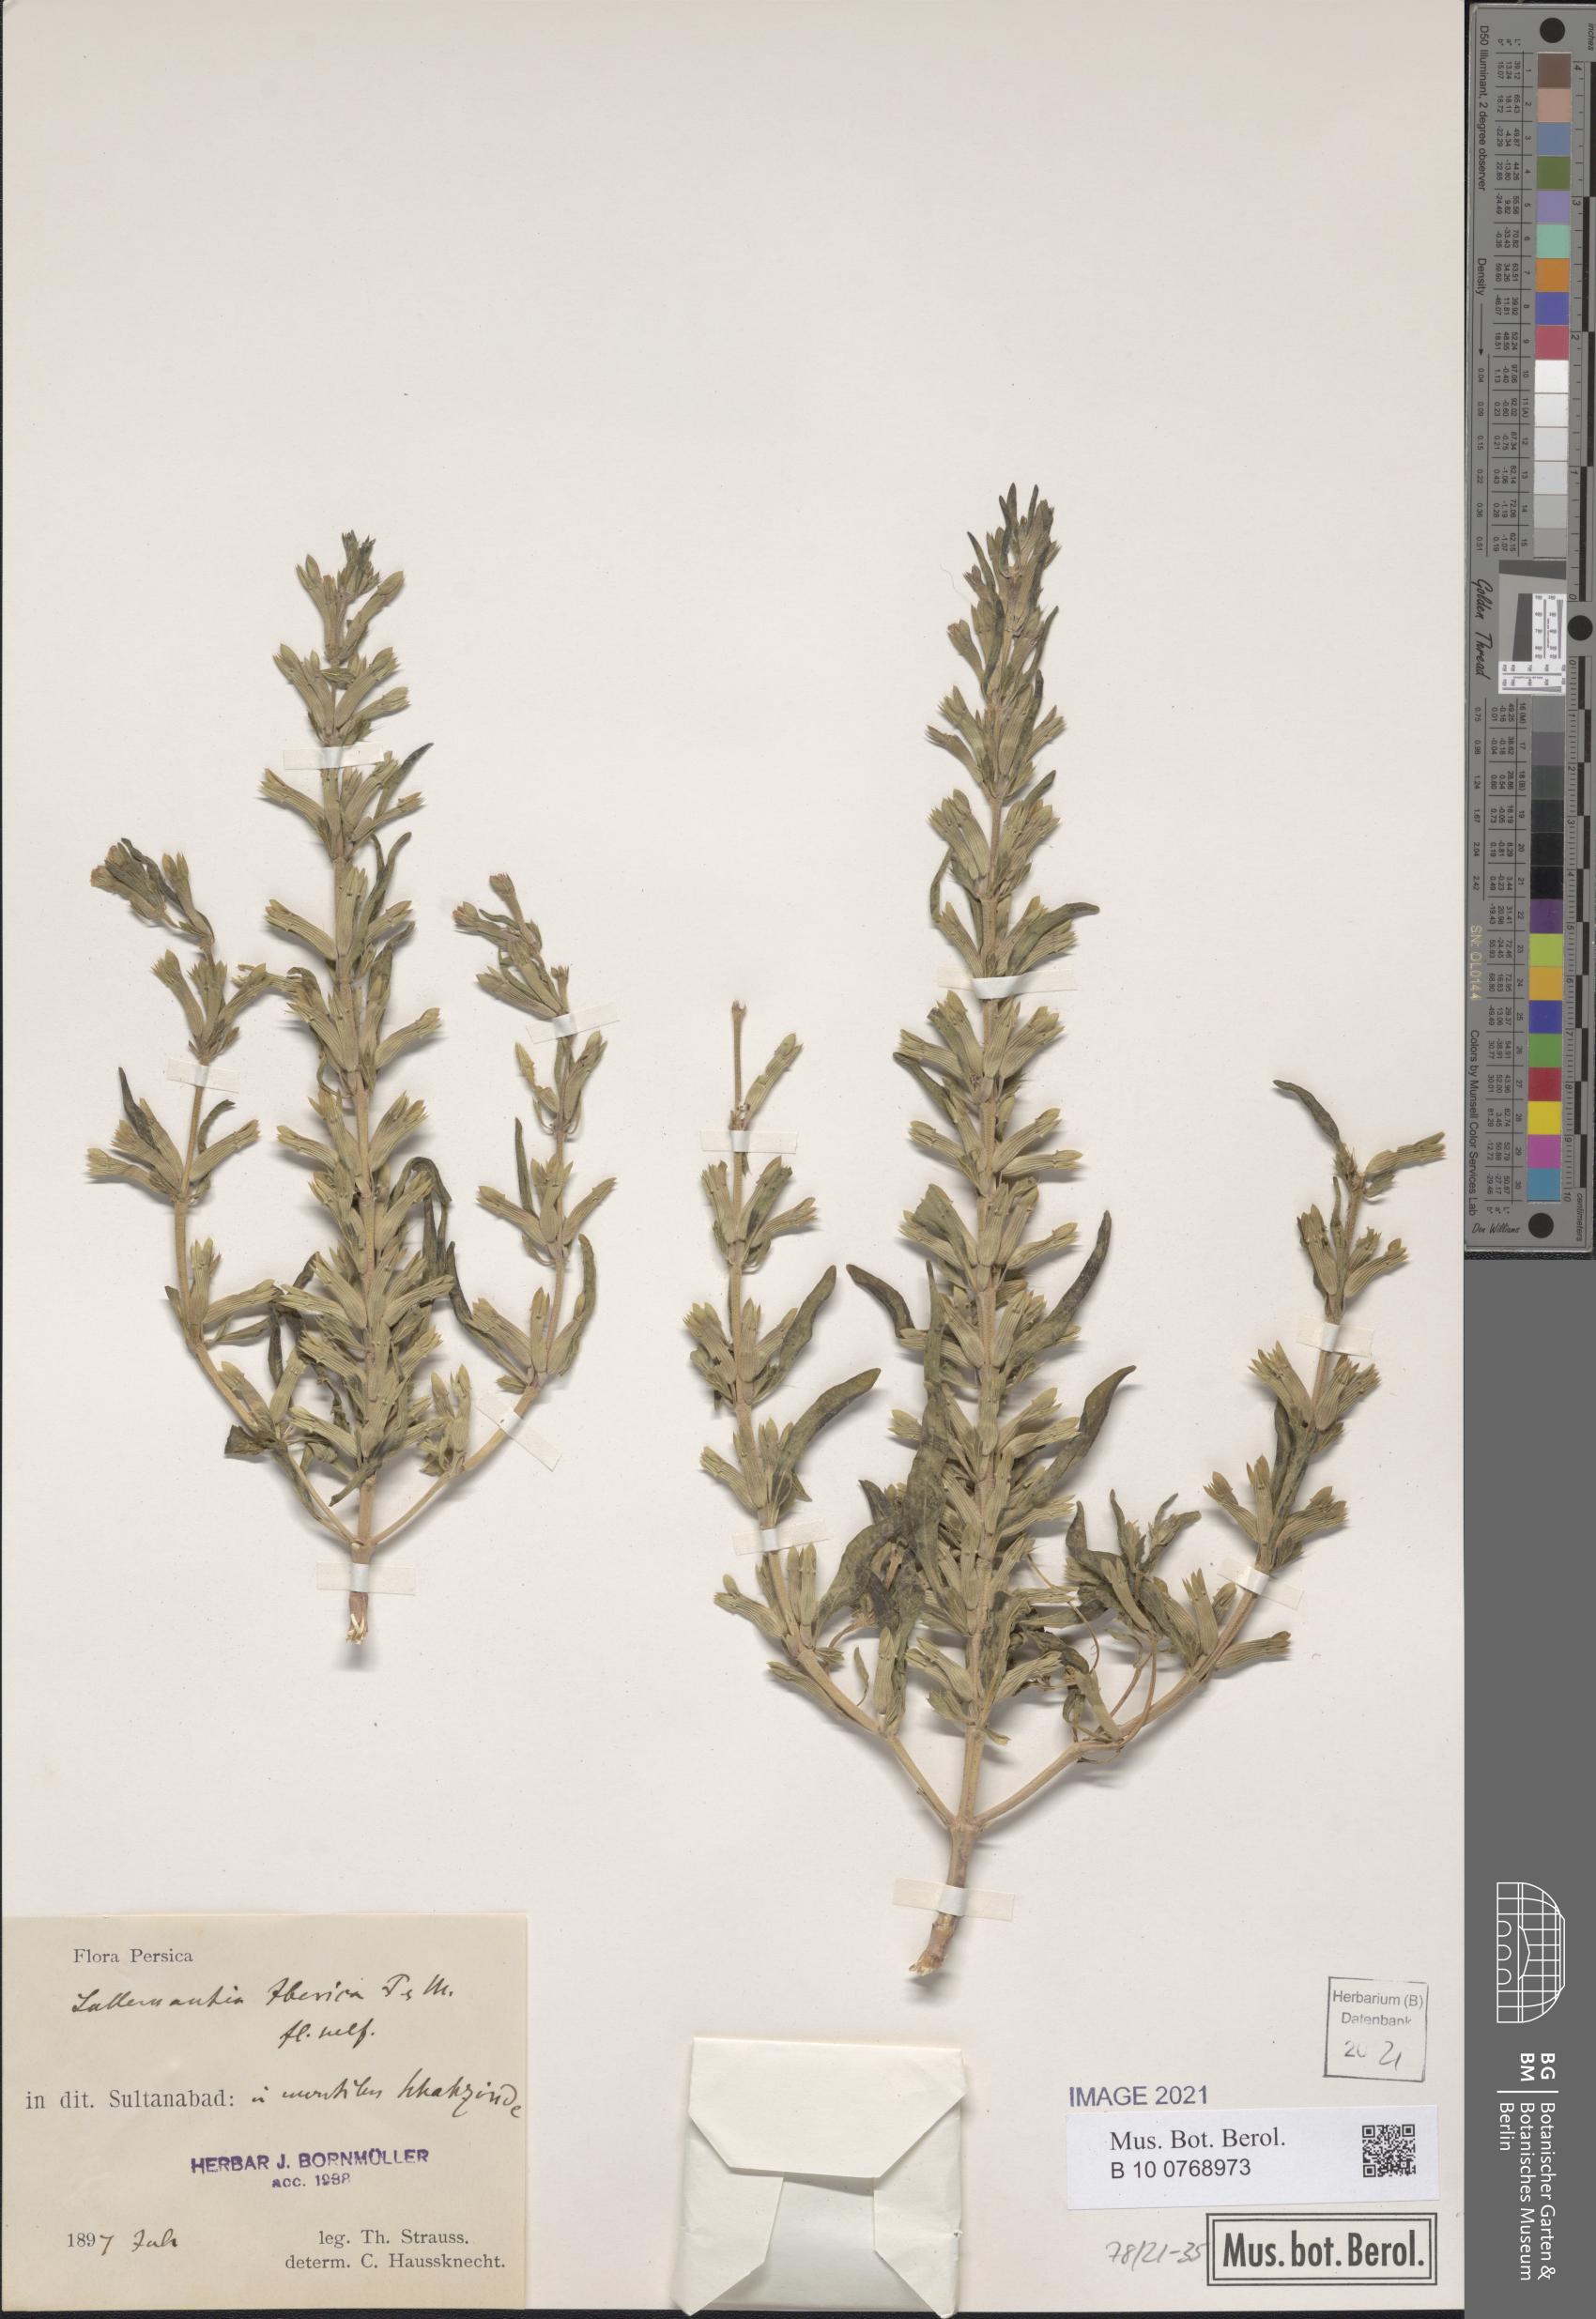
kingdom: Plantae
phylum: Tracheophyta
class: Magnoliopsida
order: Lamiales
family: Lamiaceae
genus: Lallemantia
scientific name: Lallemantia iberica
